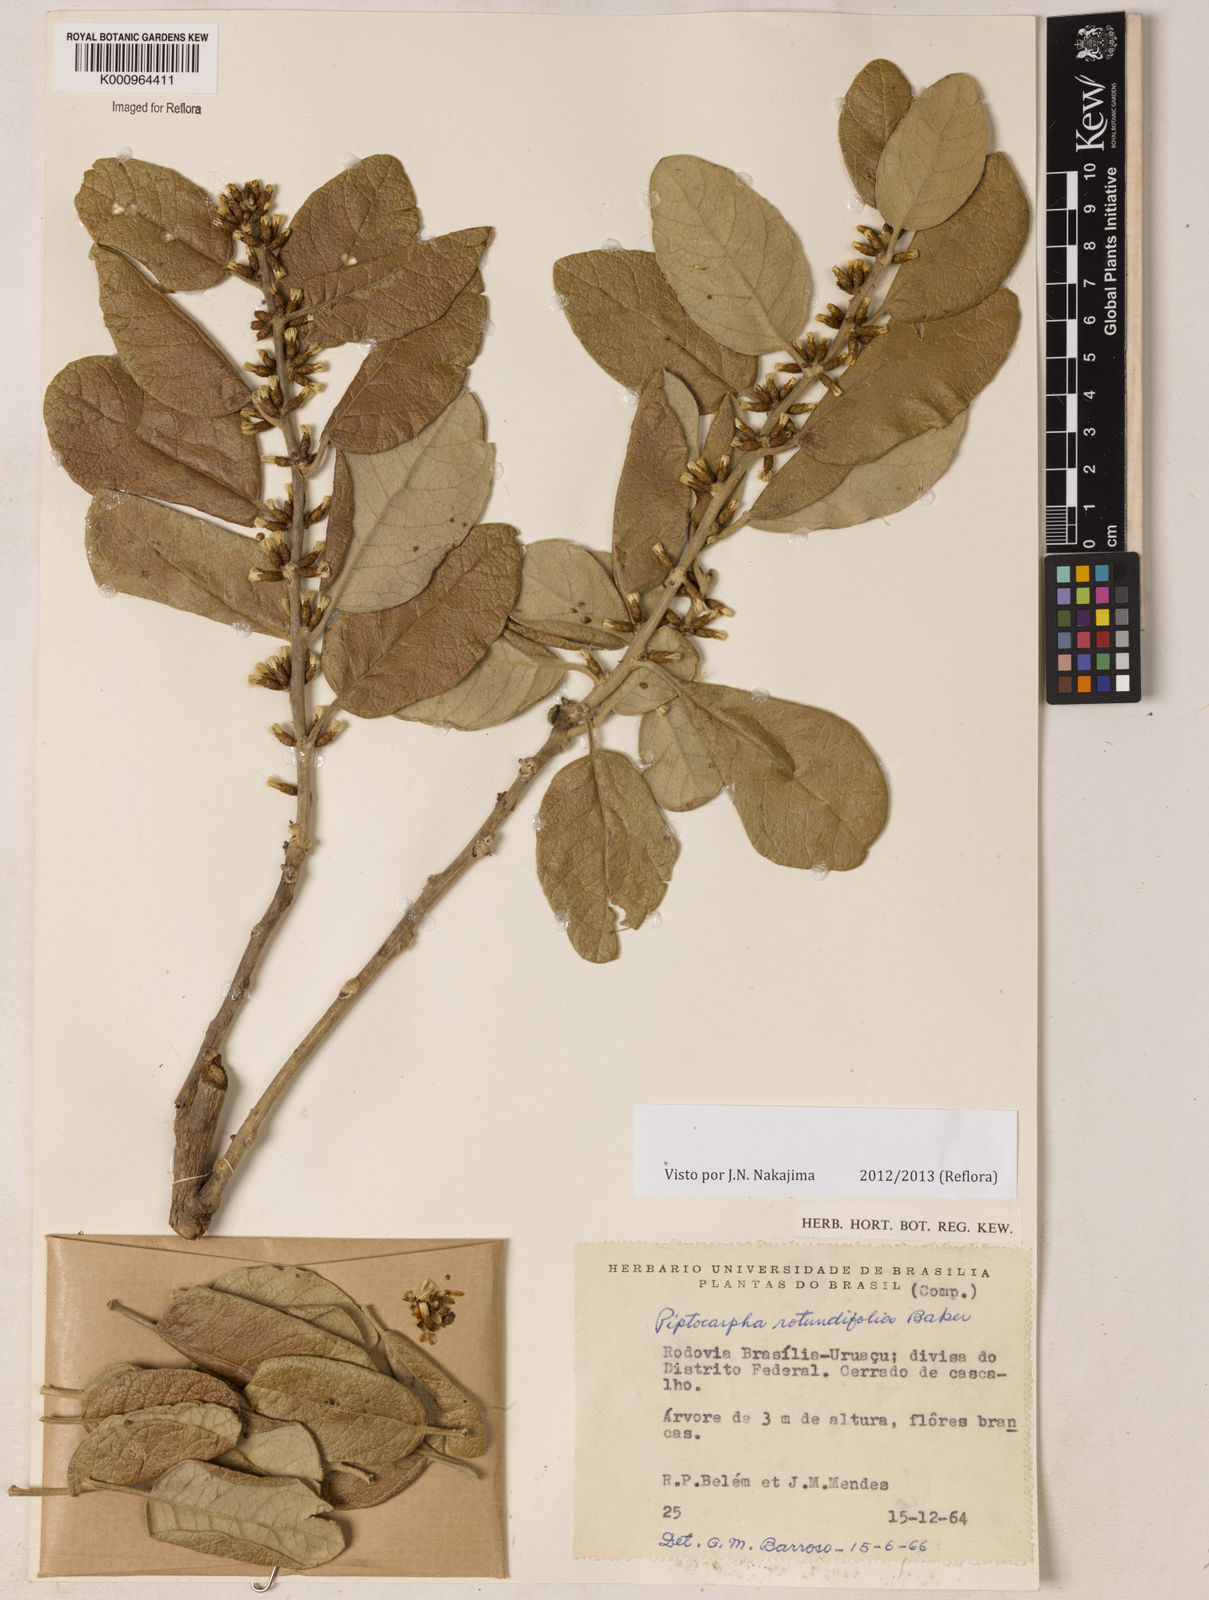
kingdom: Plantae
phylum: Tracheophyta
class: Magnoliopsida
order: Asterales
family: Asteraceae
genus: Piptocarpha
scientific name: Piptocarpha rotundifolia
